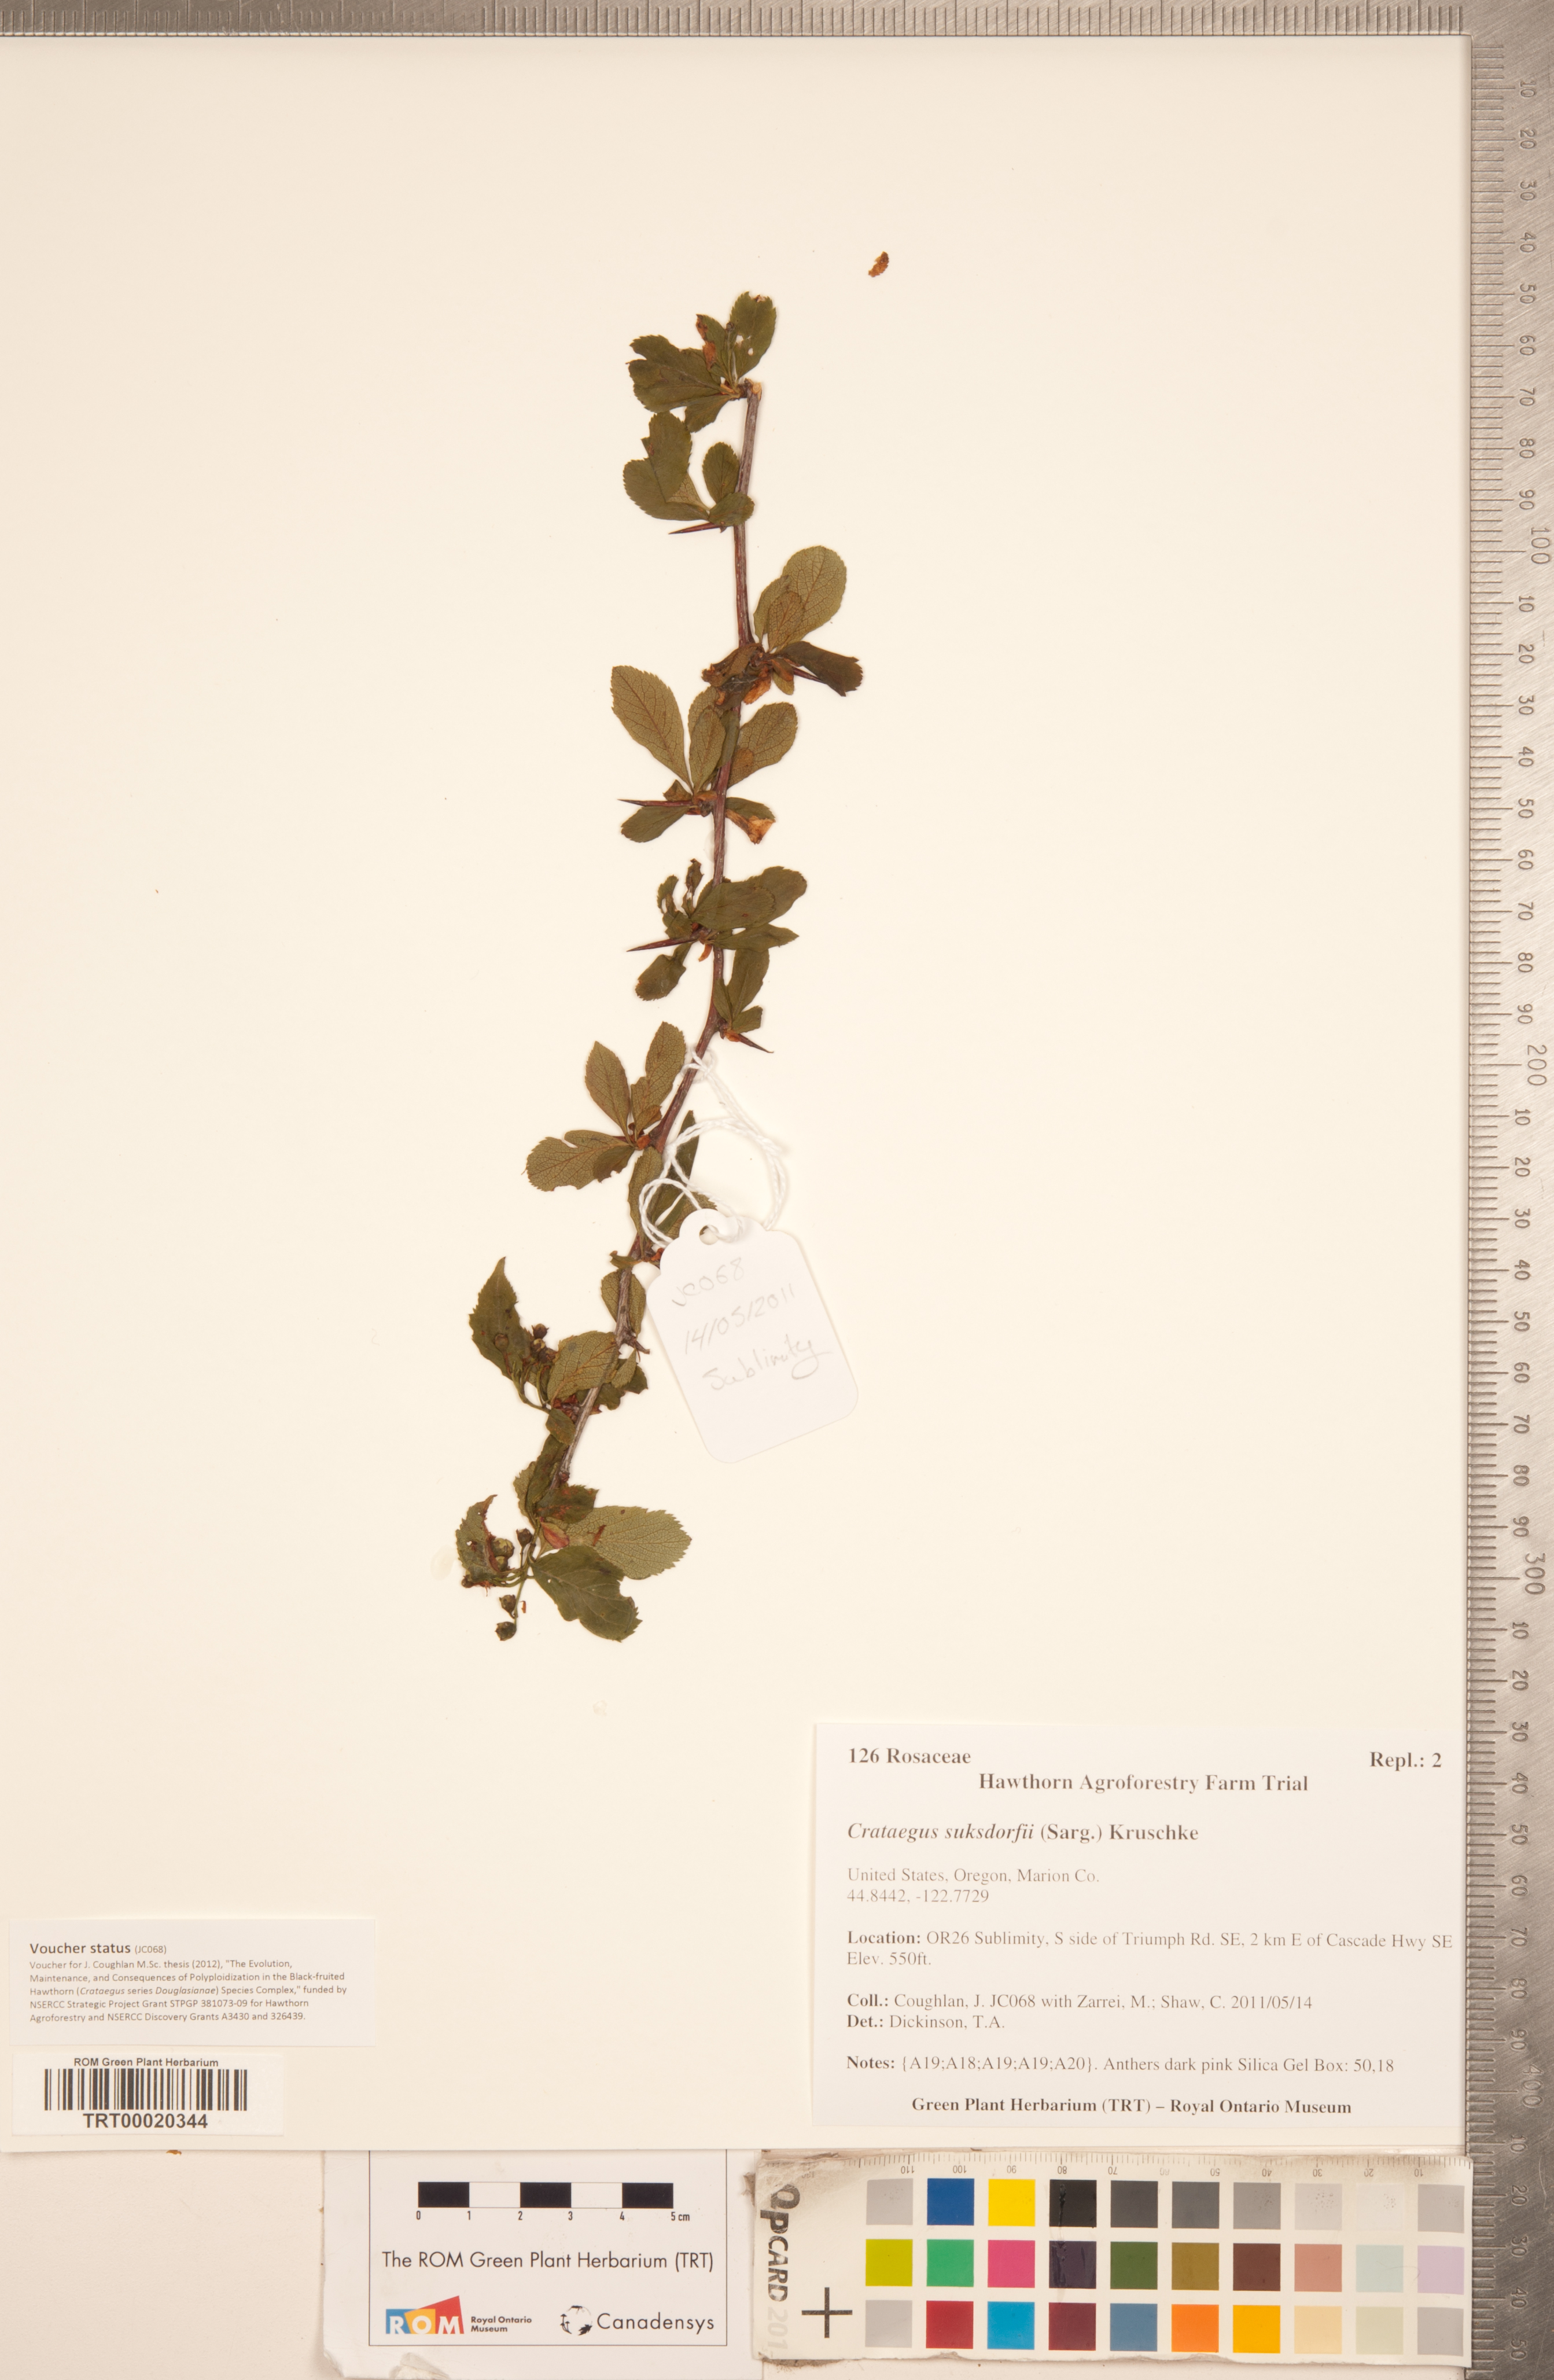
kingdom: Plantae
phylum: Tracheophyta
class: Magnoliopsida
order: Rosales
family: Rosaceae
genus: Crataegus
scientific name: Crataegus gaylussacia
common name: Huckleberry hawthorn
